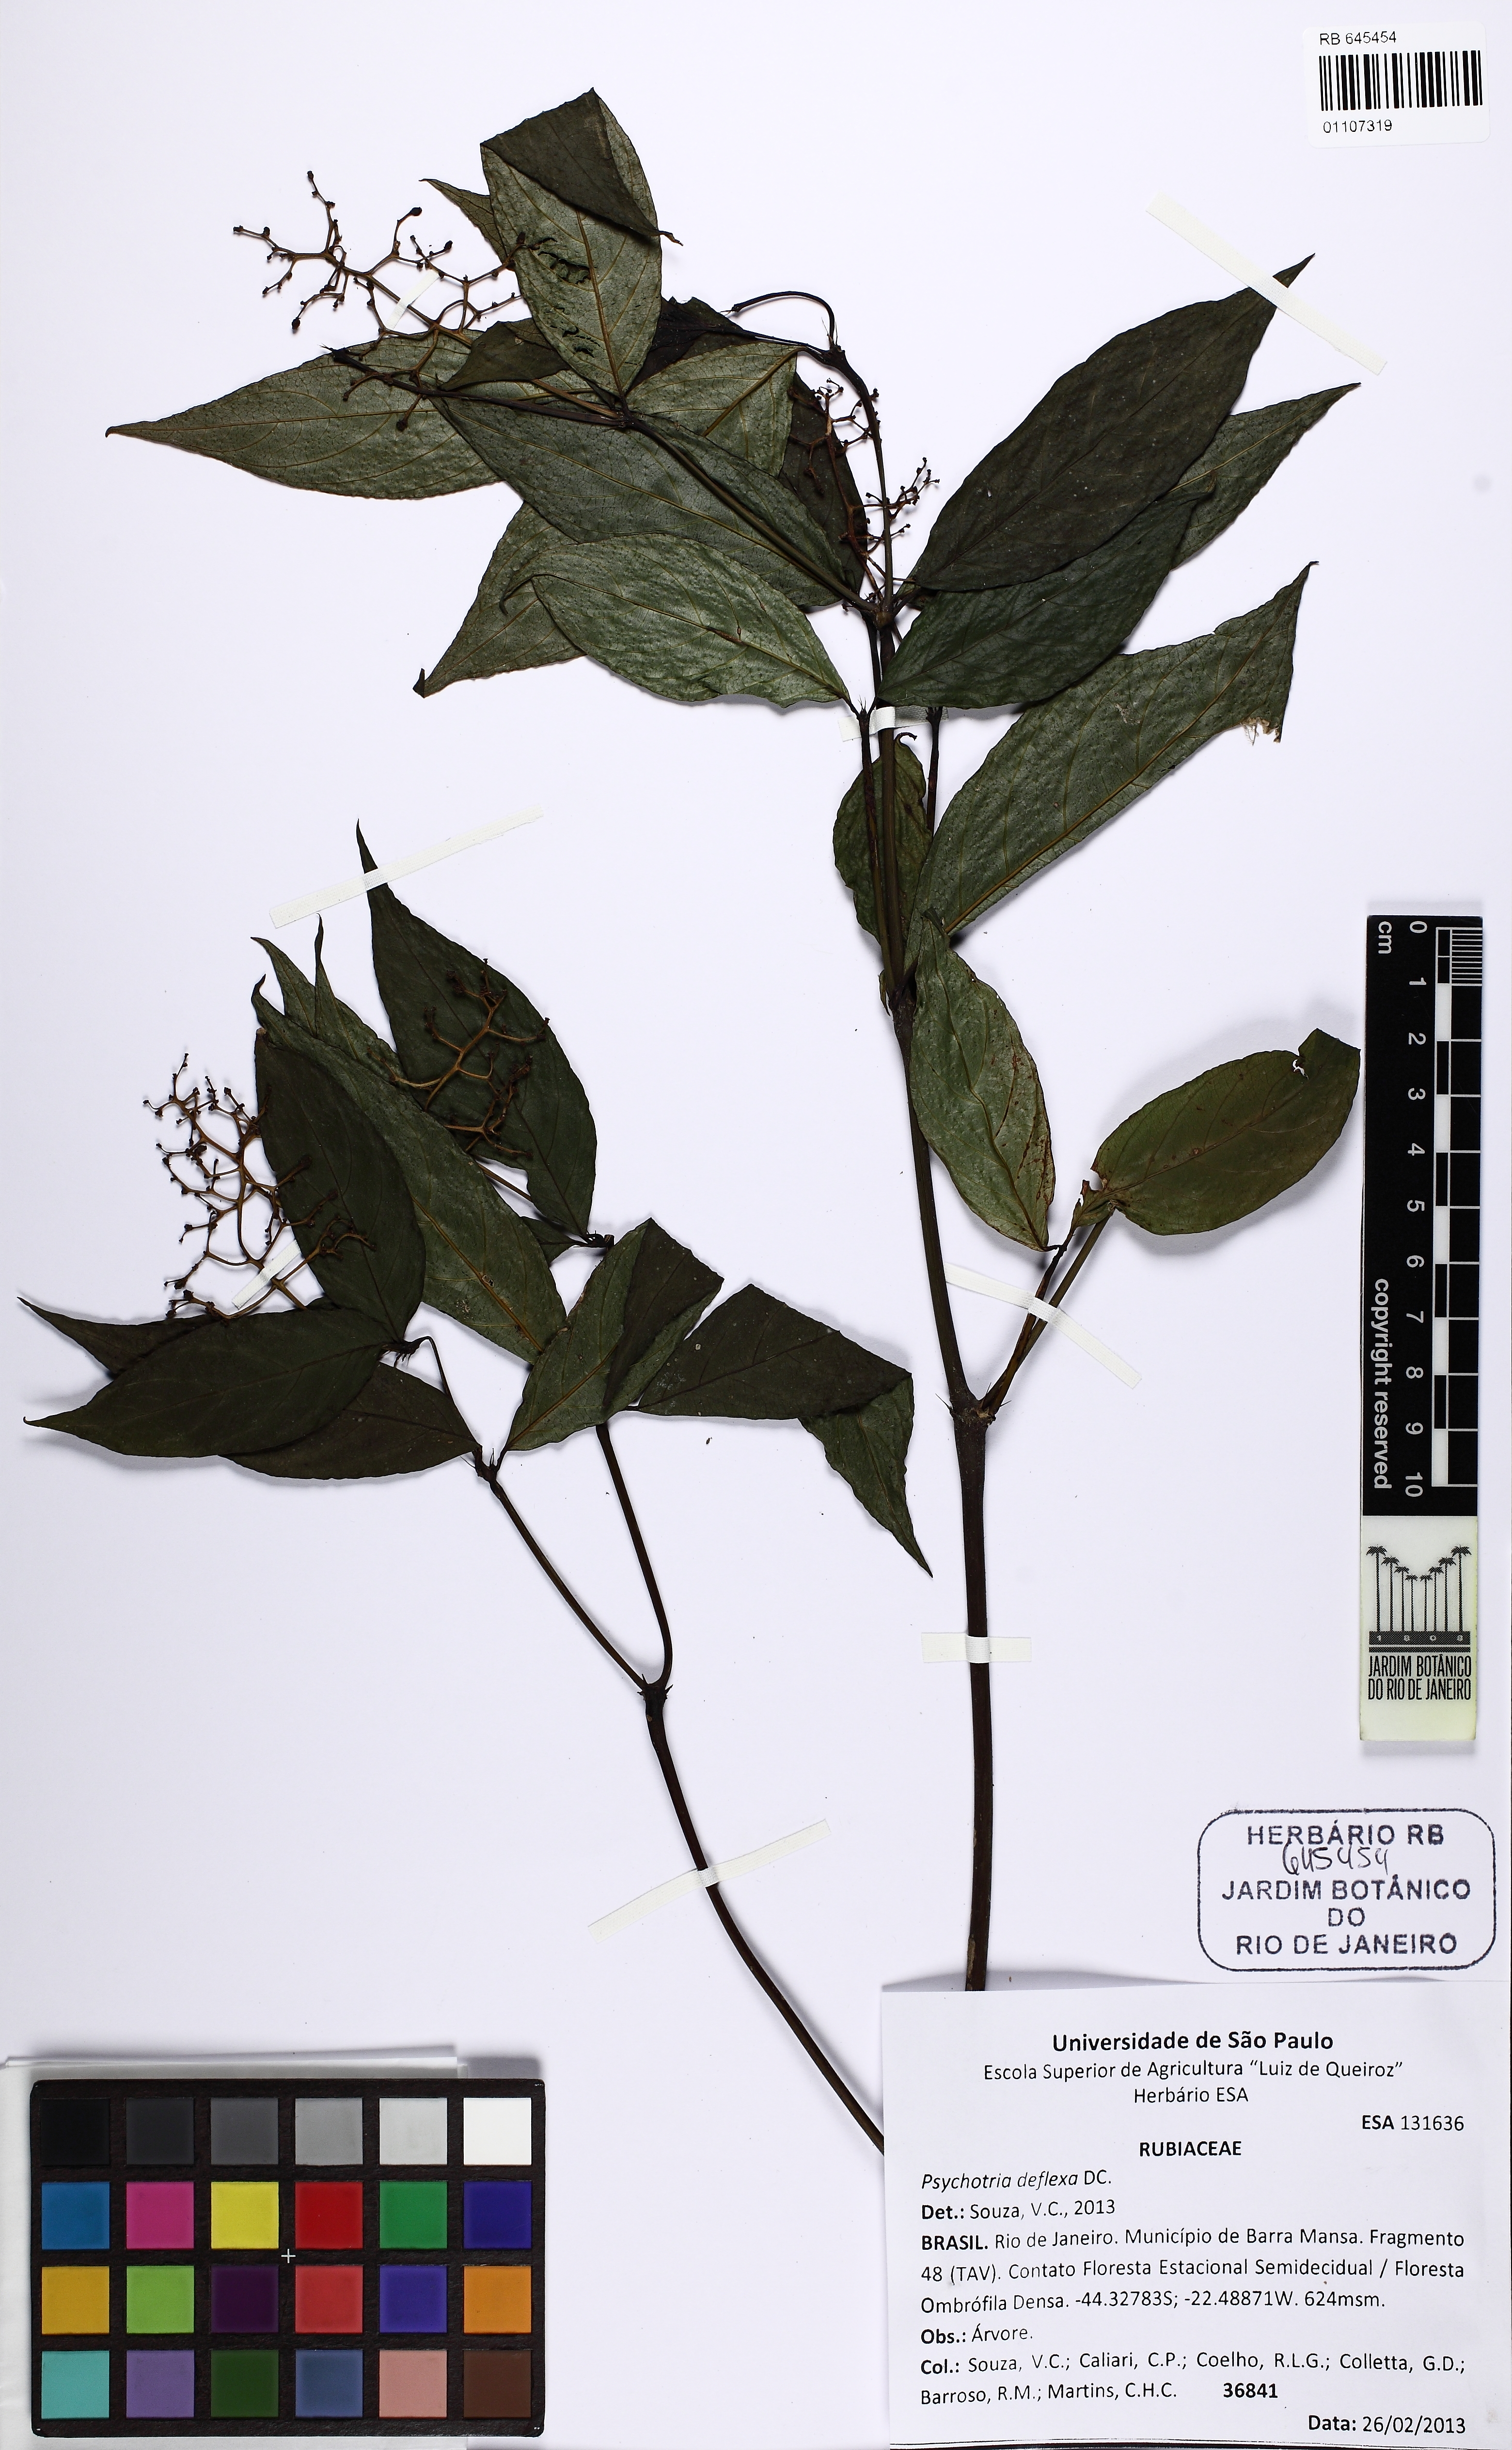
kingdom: Plantae
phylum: Tracheophyta
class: Magnoliopsida
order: Gentianales
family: Rubiaceae
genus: Palicourea
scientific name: Palicourea deflexa
